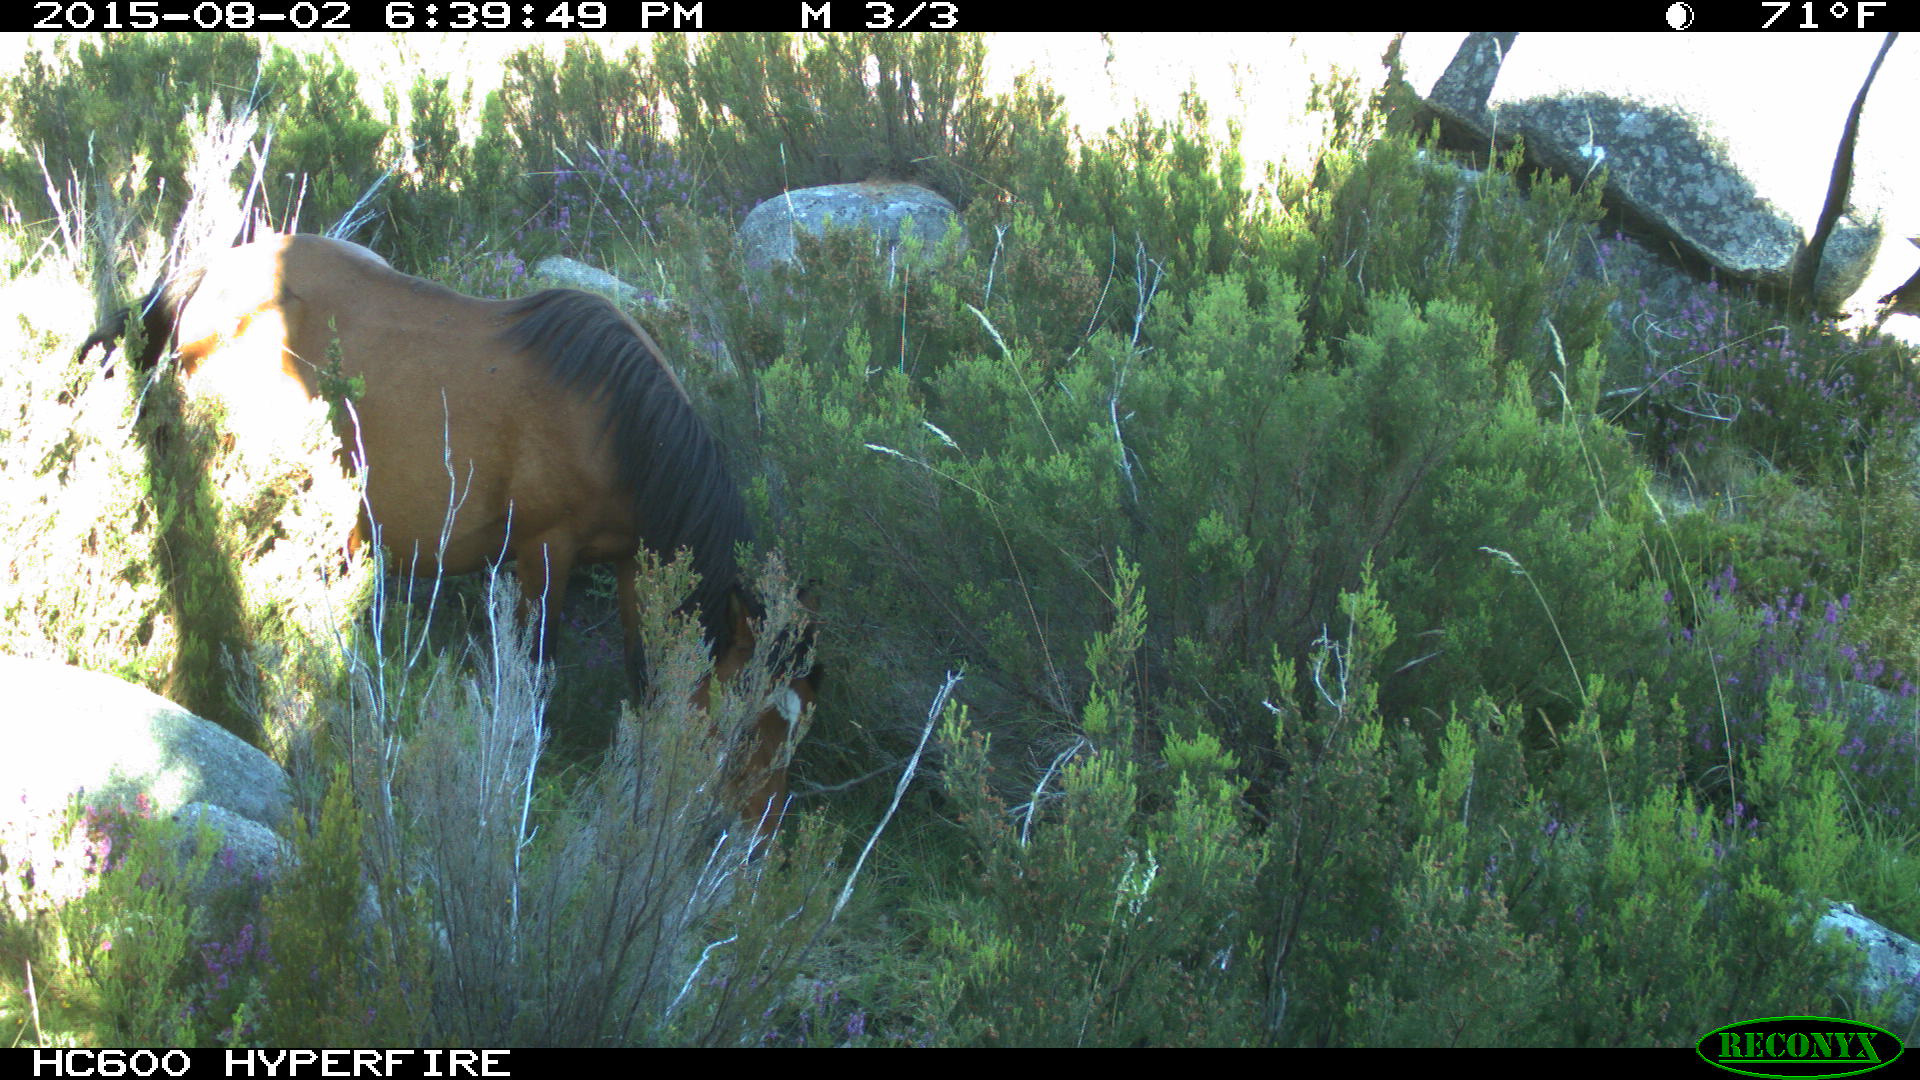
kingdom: Animalia
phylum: Chordata
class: Mammalia
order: Perissodactyla
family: Equidae
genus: Equus
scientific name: Equus caballus
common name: Horse
